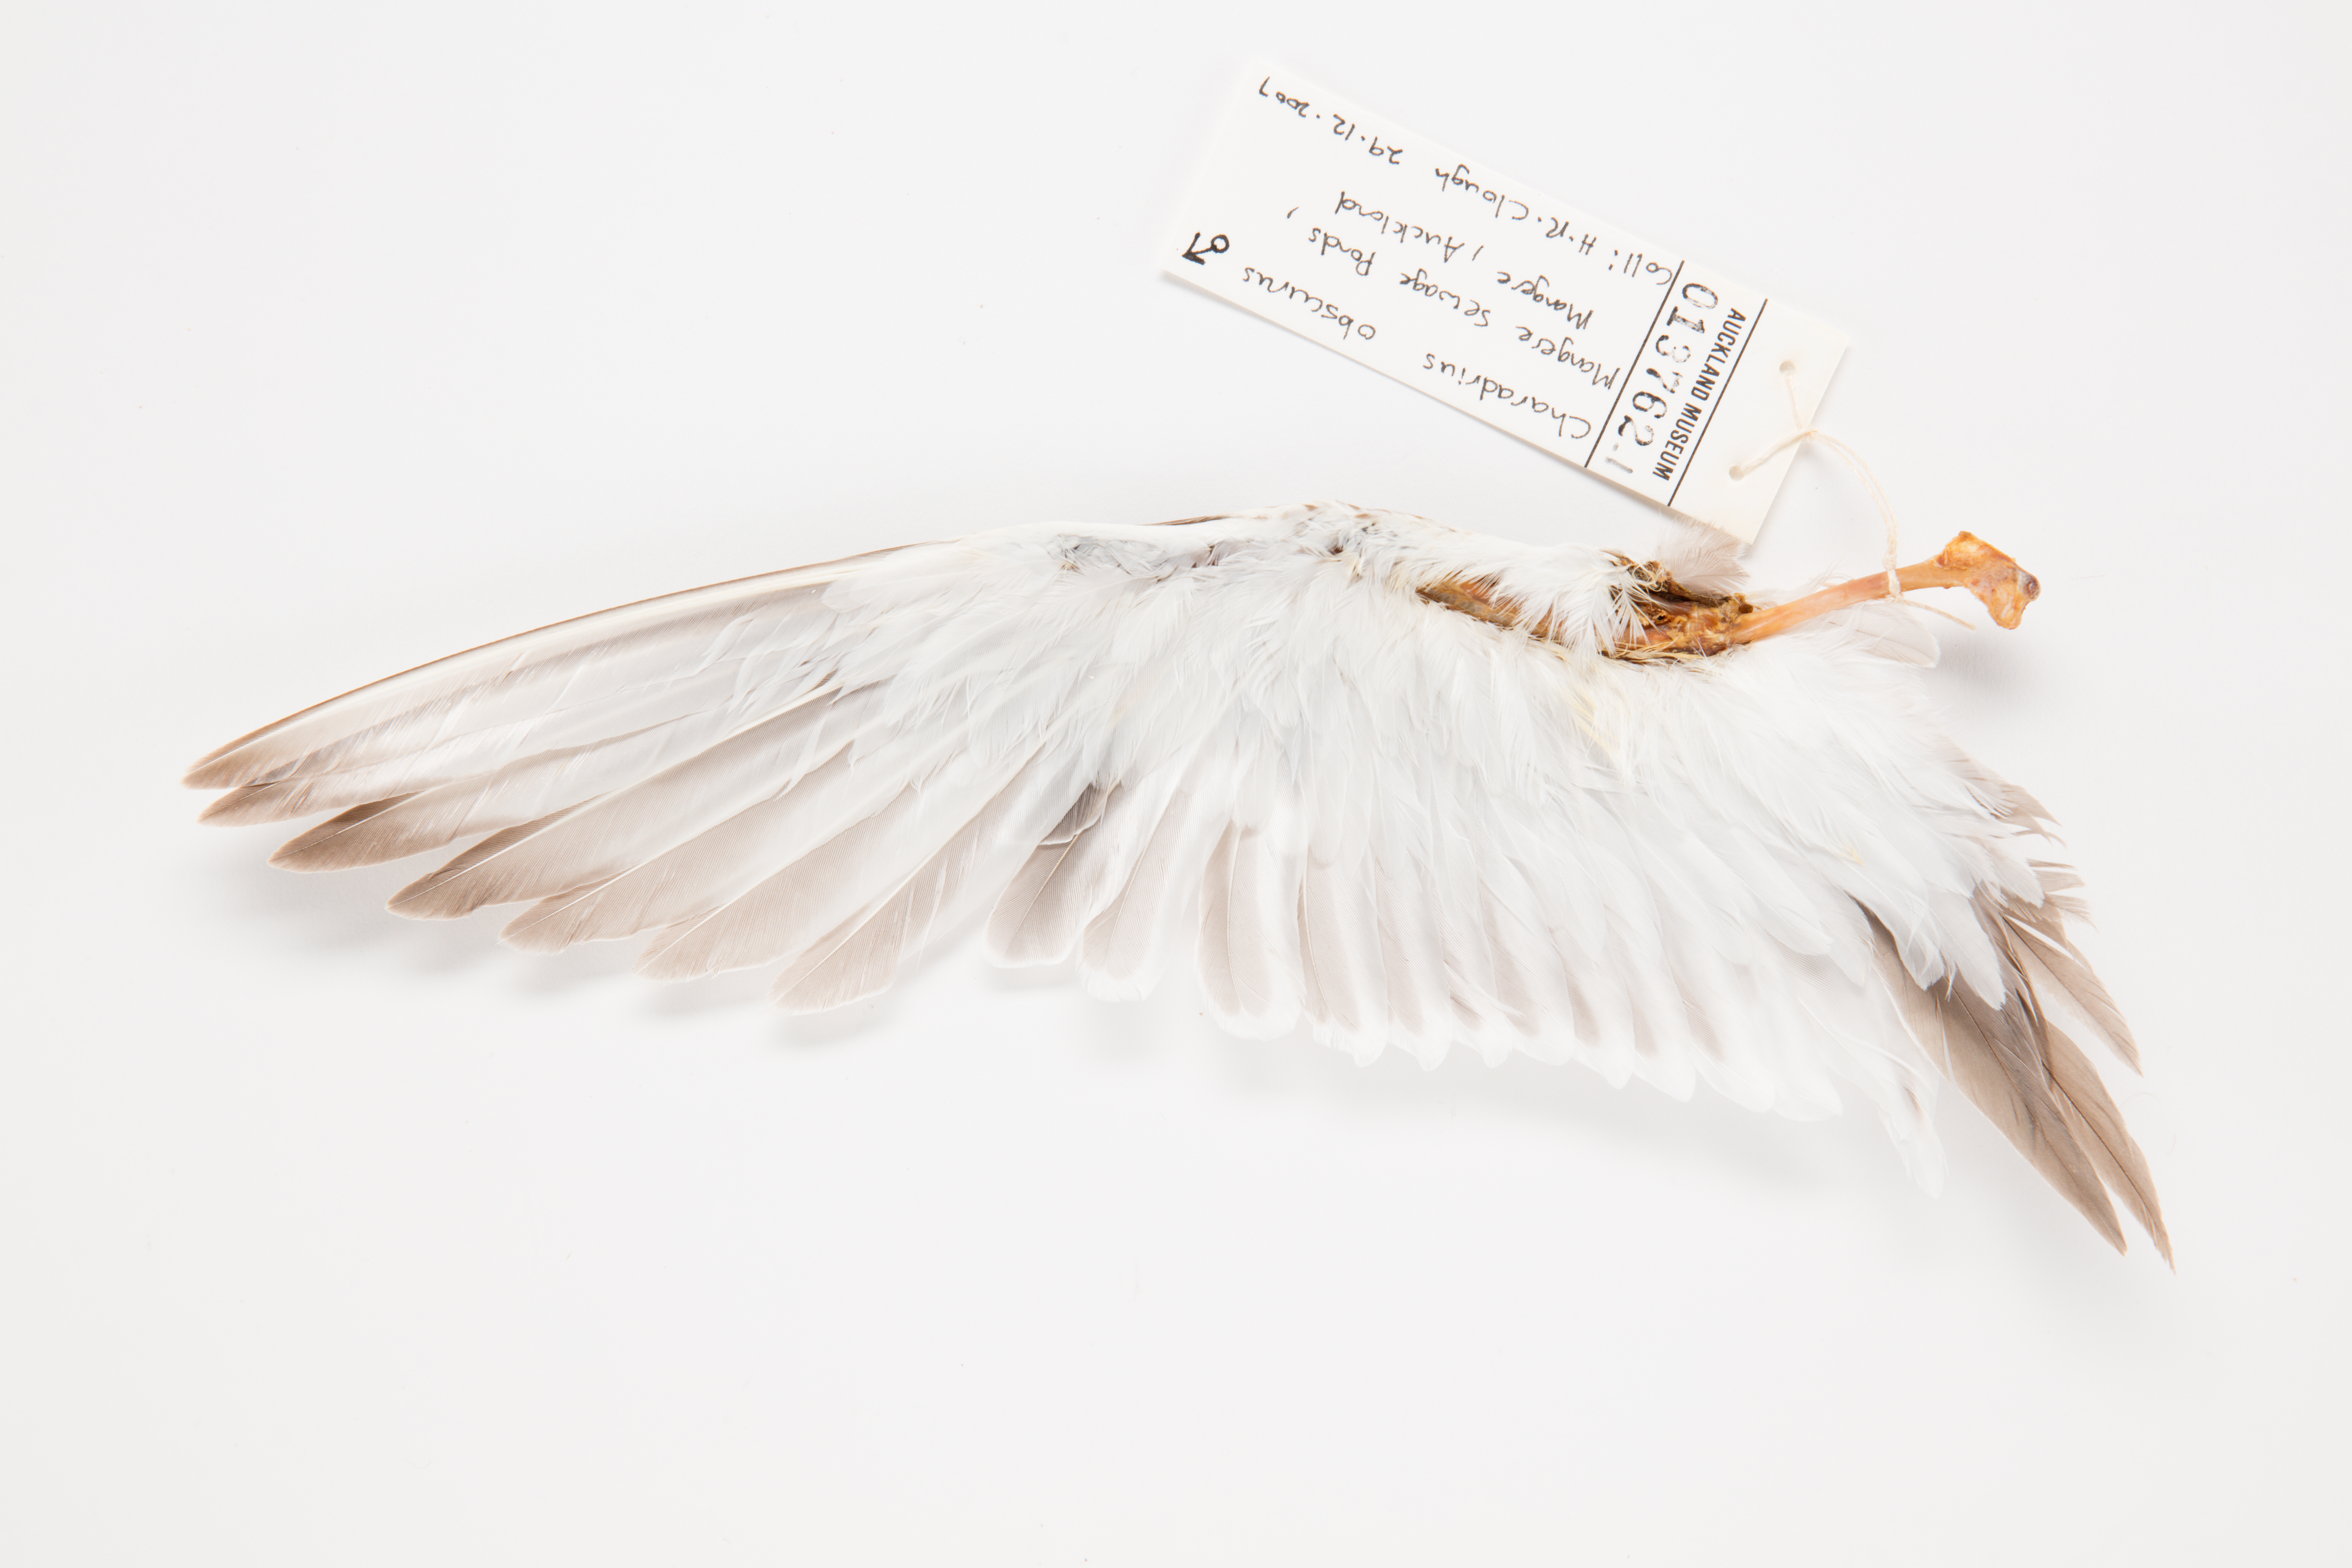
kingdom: Animalia
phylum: Chordata
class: Aves
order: Charadriiformes
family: Charadriidae
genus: Charadrius
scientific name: Charadrius obscurus
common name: New zealand plover
